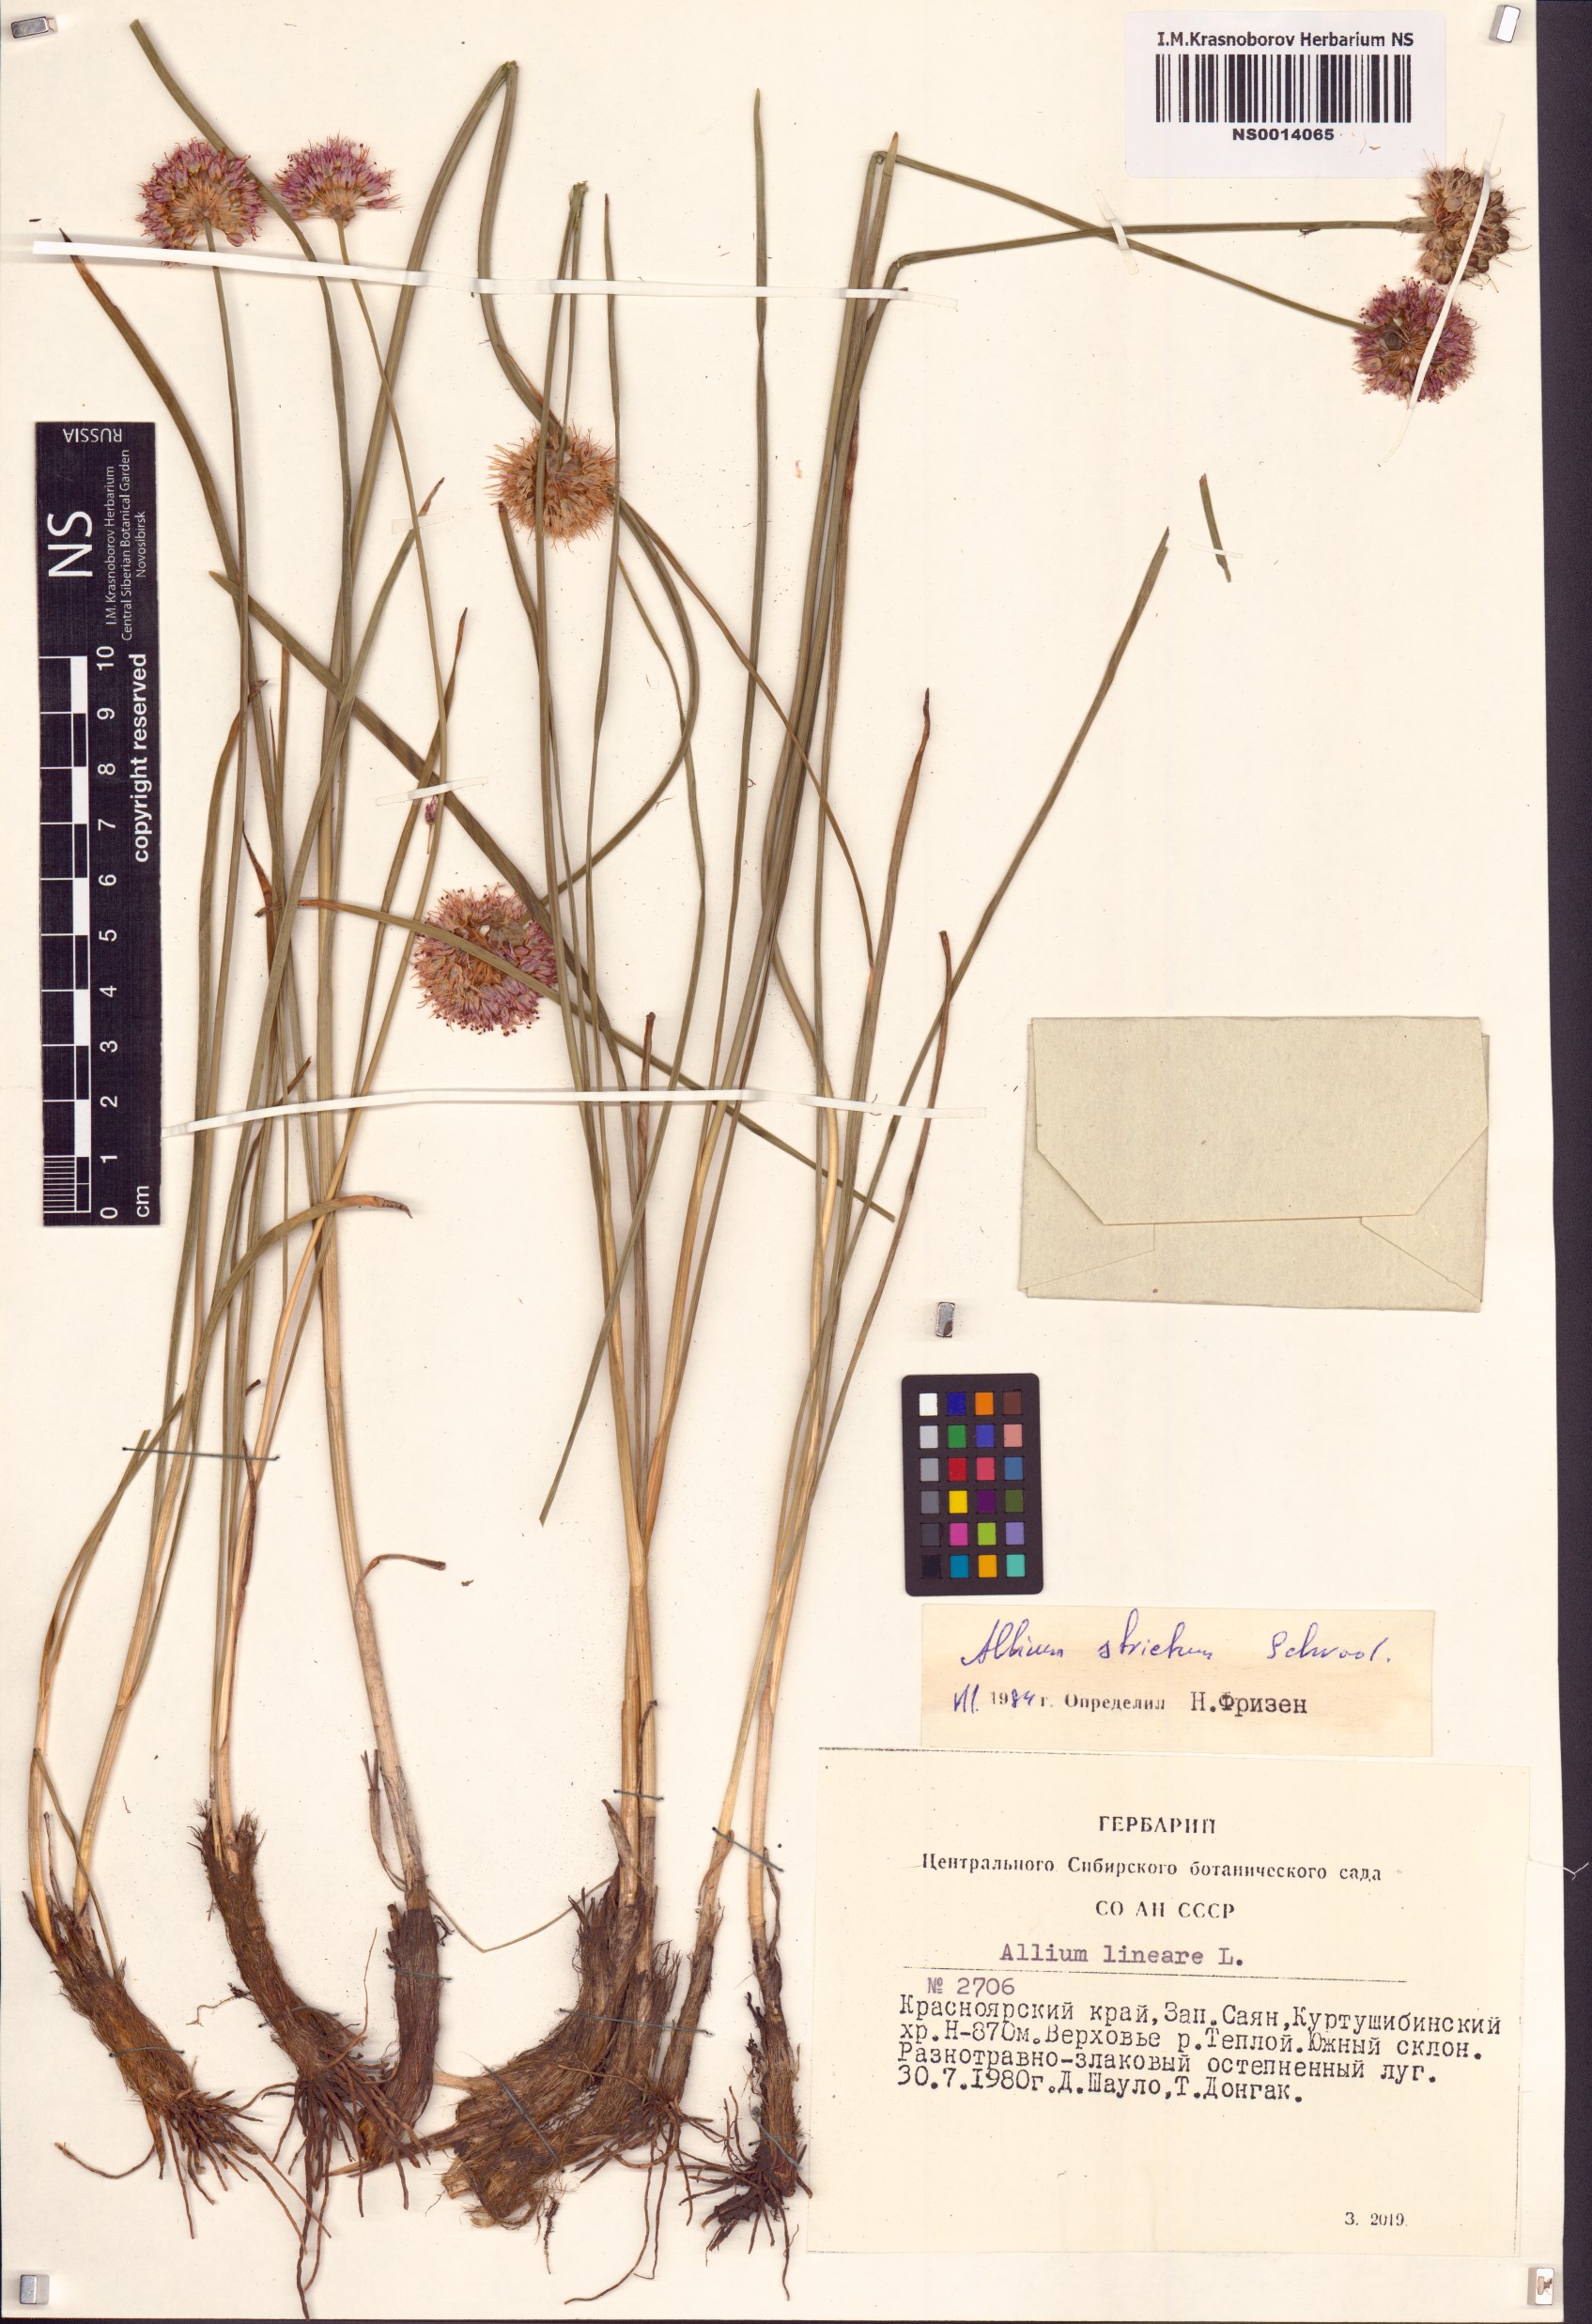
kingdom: Plantae
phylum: Tracheophyta
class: Liliopsida
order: Asparagales
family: Amaryllidaceae
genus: Allium
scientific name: Allium strictum
